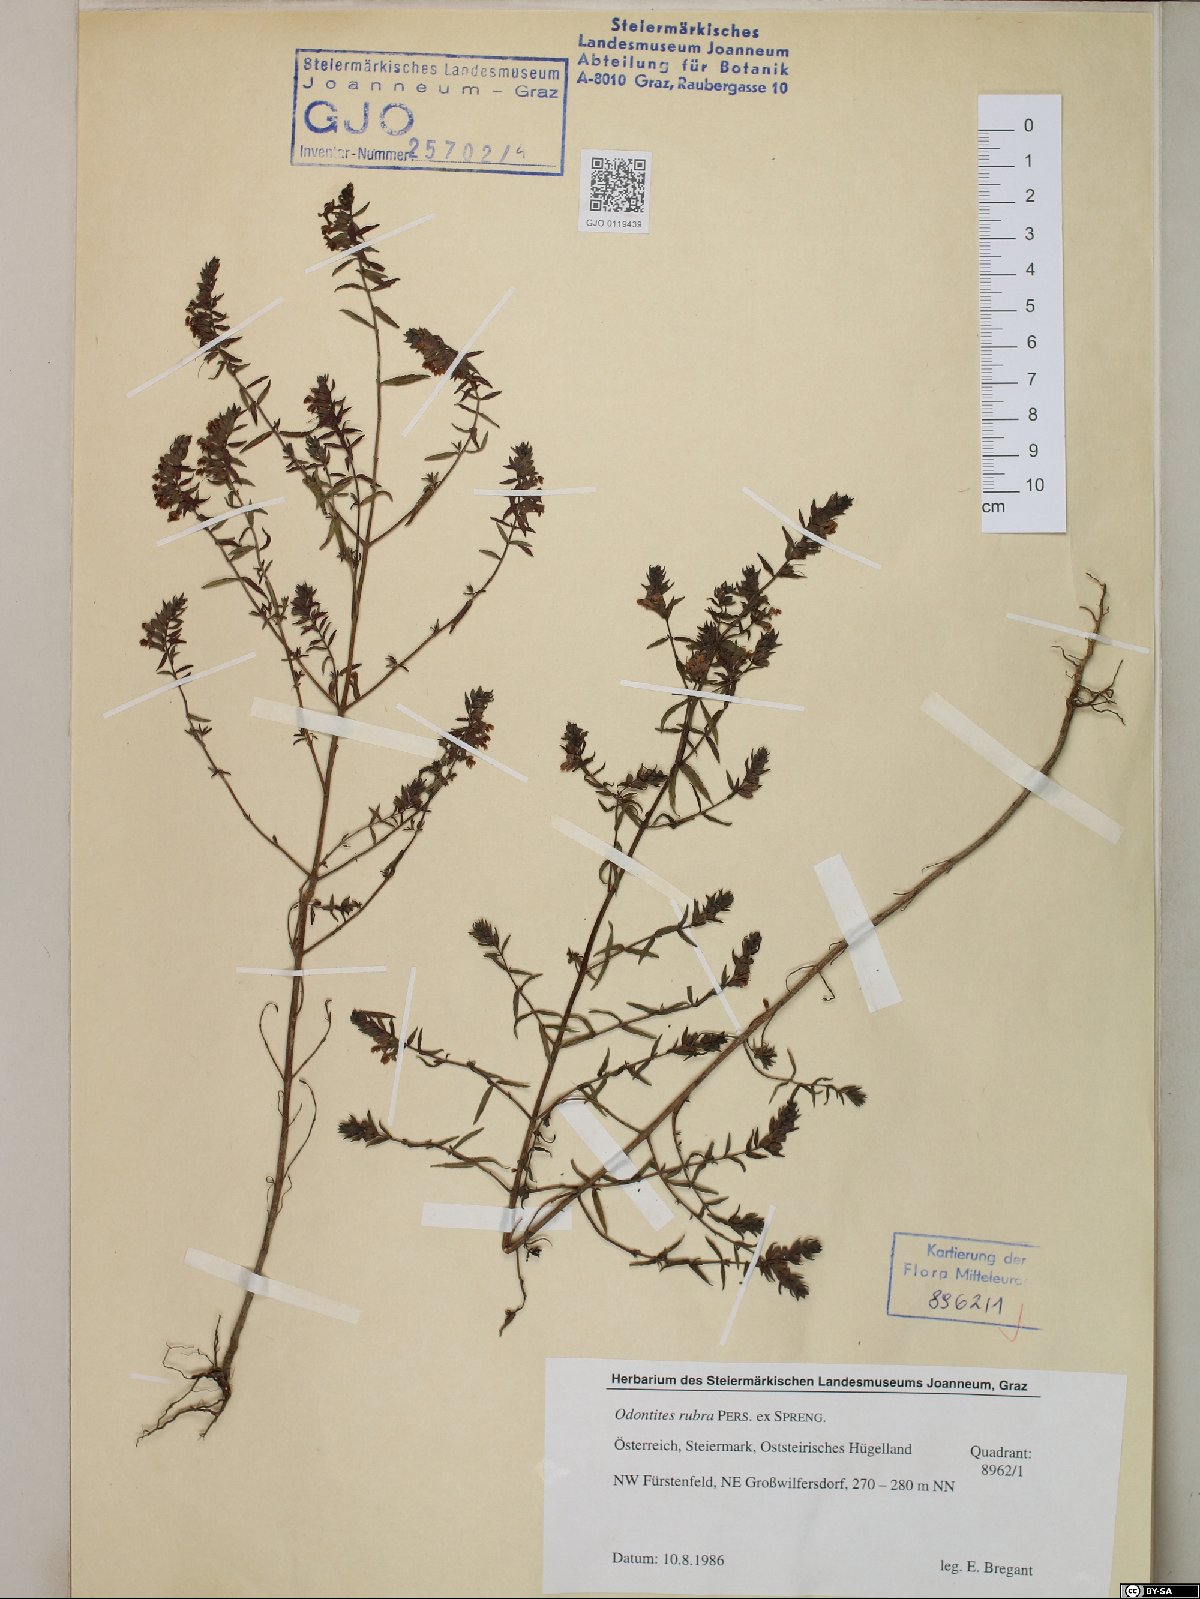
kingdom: Plantae
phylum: Tracheophyta
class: Magnoliopsida
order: Lamiales
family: Orobanchaceae
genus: Odontites
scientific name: Odontites ruber
